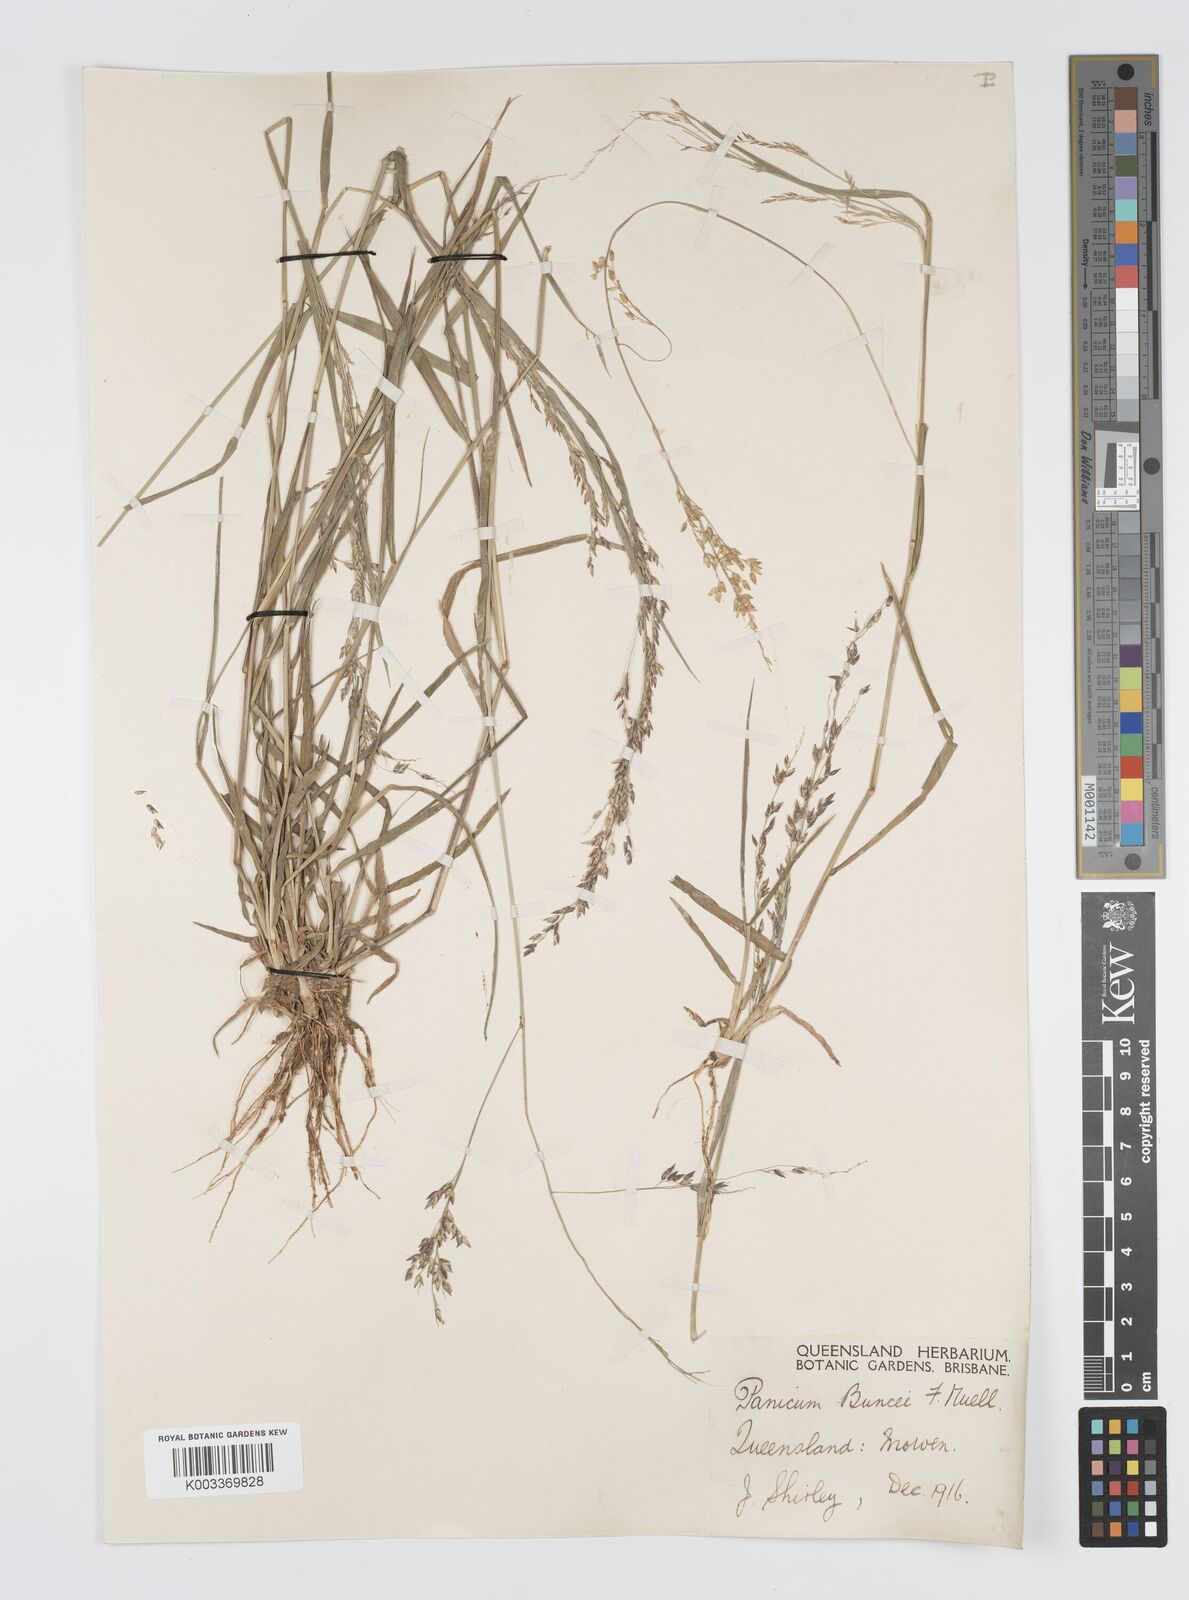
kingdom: Plantae
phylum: Tracheophyta
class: Liliopsida
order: Poales
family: Poaceae
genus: Panicum
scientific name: Panicum buncei
